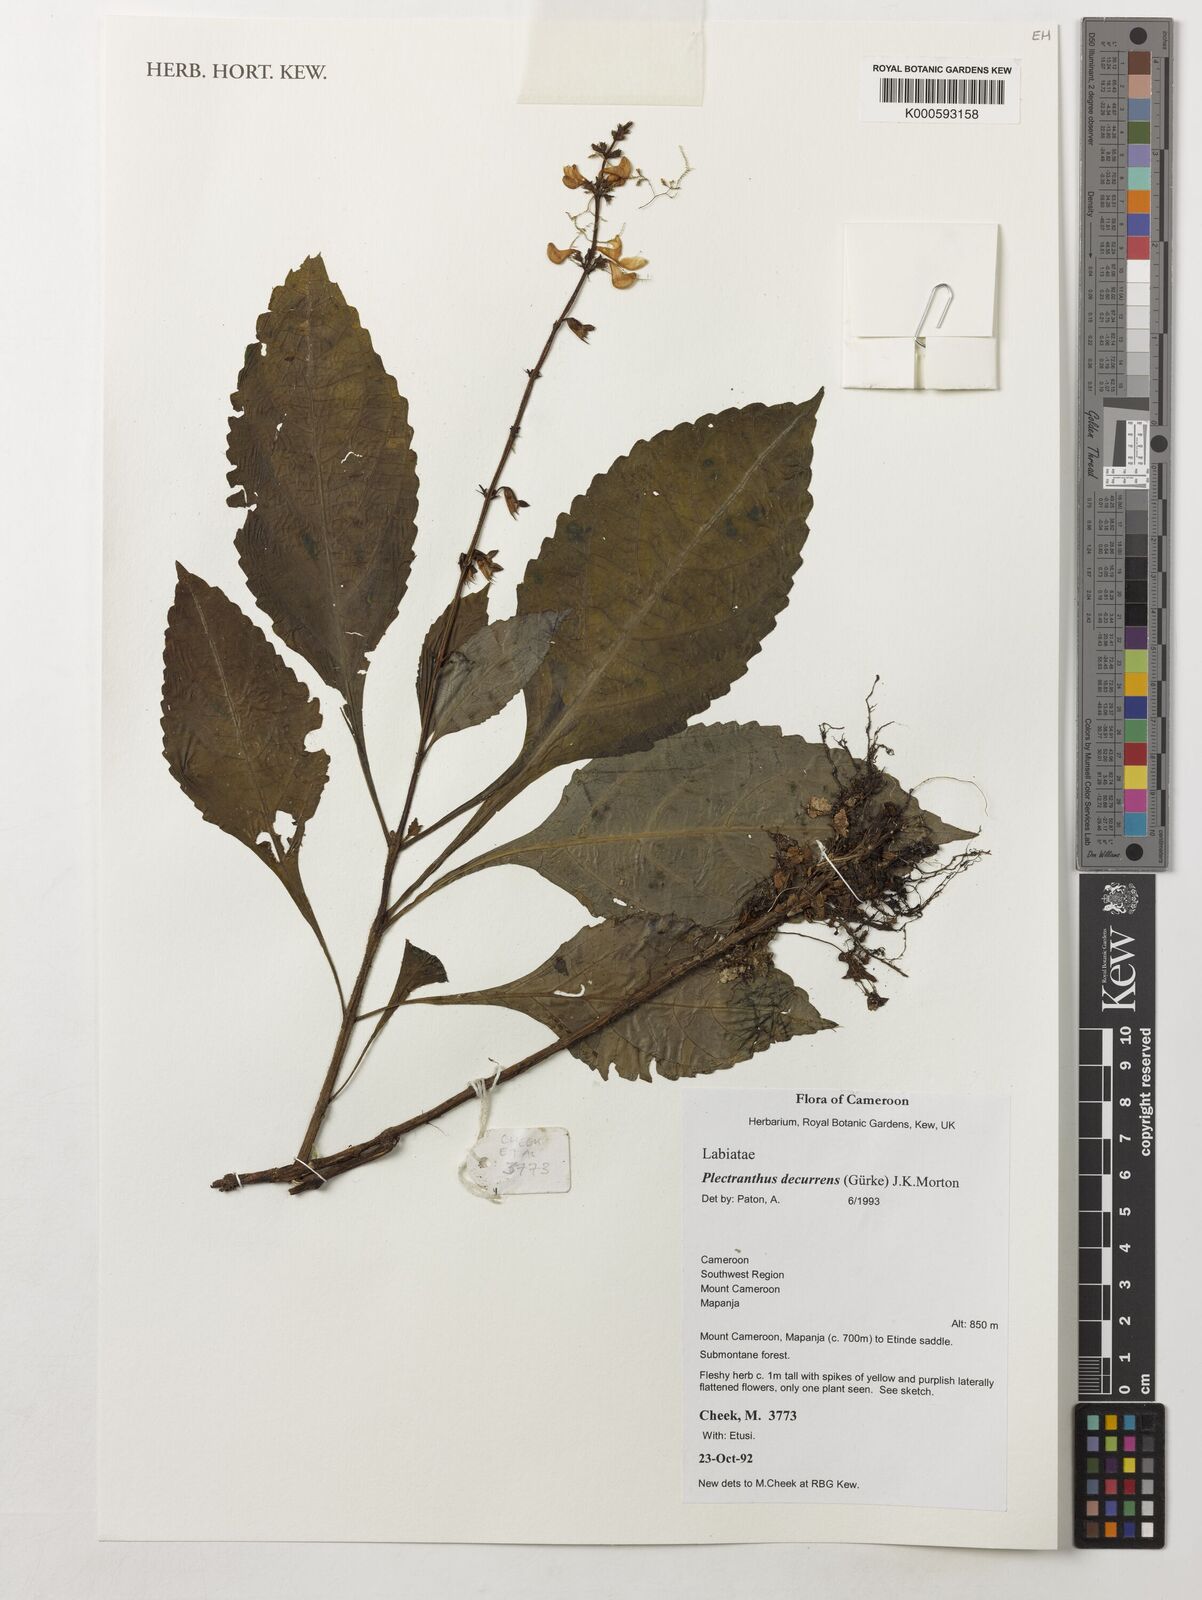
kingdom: Plantae
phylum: Tracheophyta
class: Magnoliopsida
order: Lamiales
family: Lamiaceae
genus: Coleus
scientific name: Coleus decurrens
